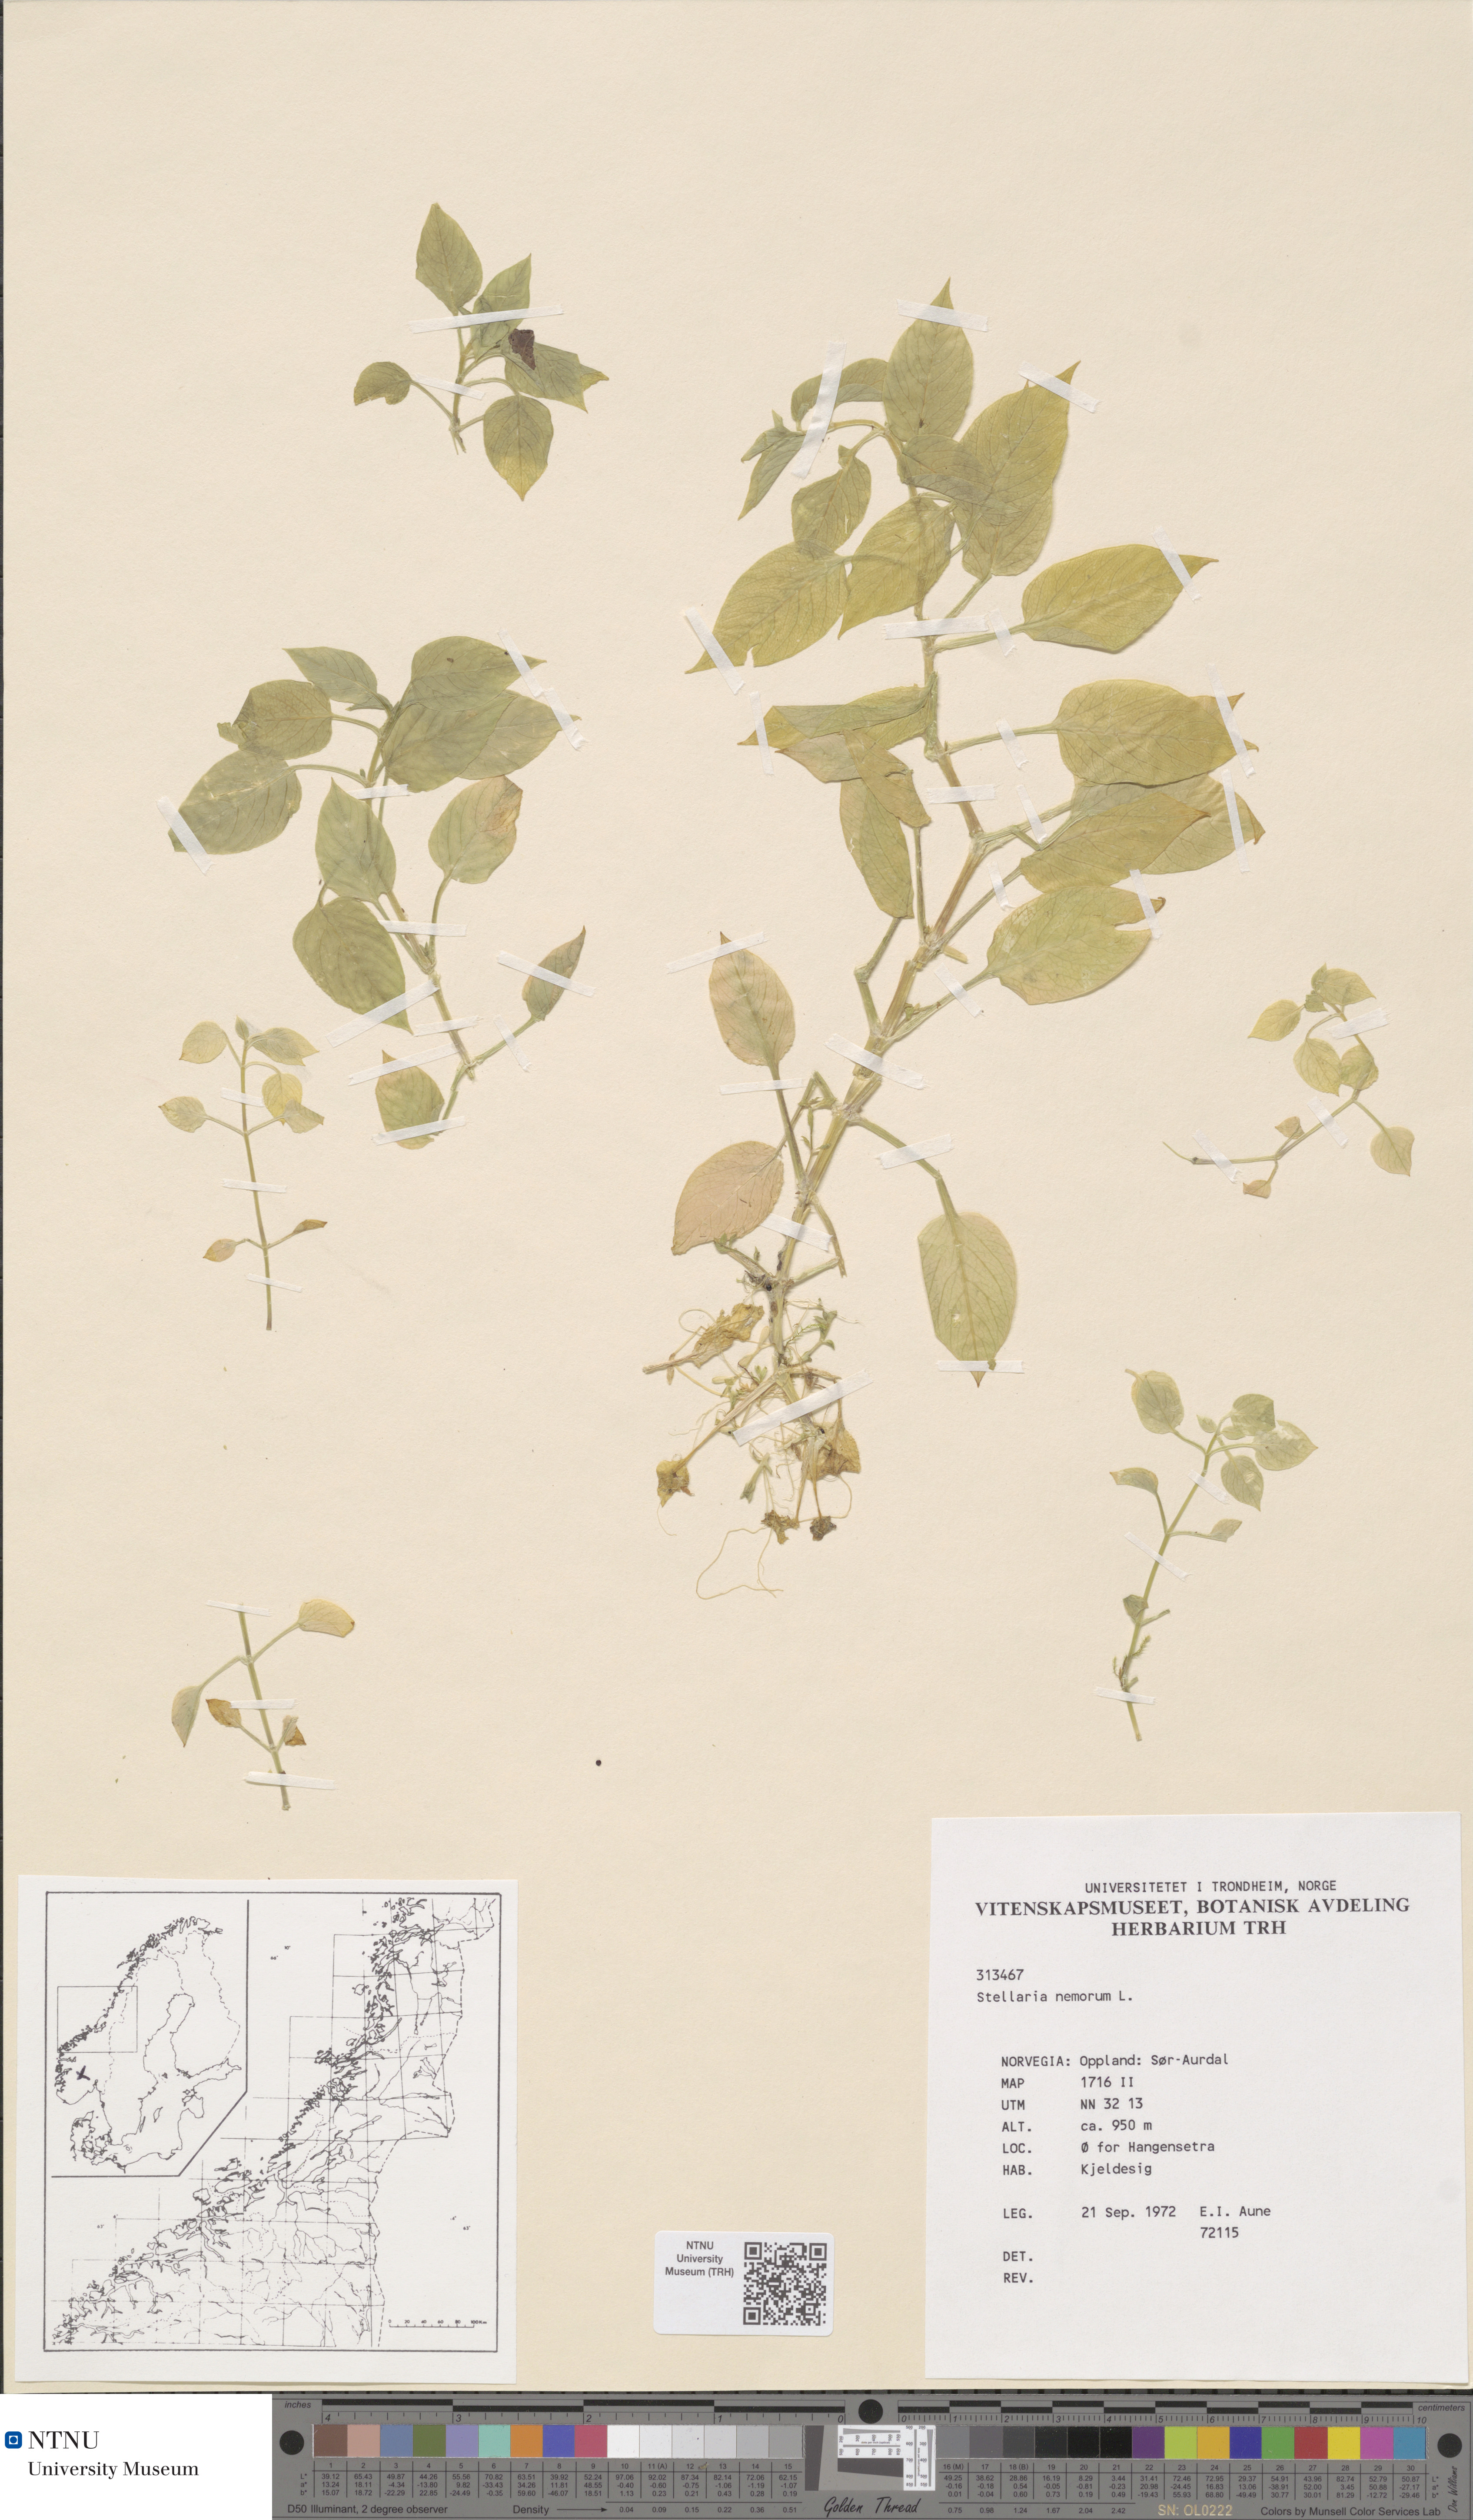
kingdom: Plantae
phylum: Tracheophyta
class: Magnoliopsida
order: Caryophyllales
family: Caryophyllaceae
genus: Stellaria
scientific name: Stellaria nemorum
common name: Wood stitchwort
